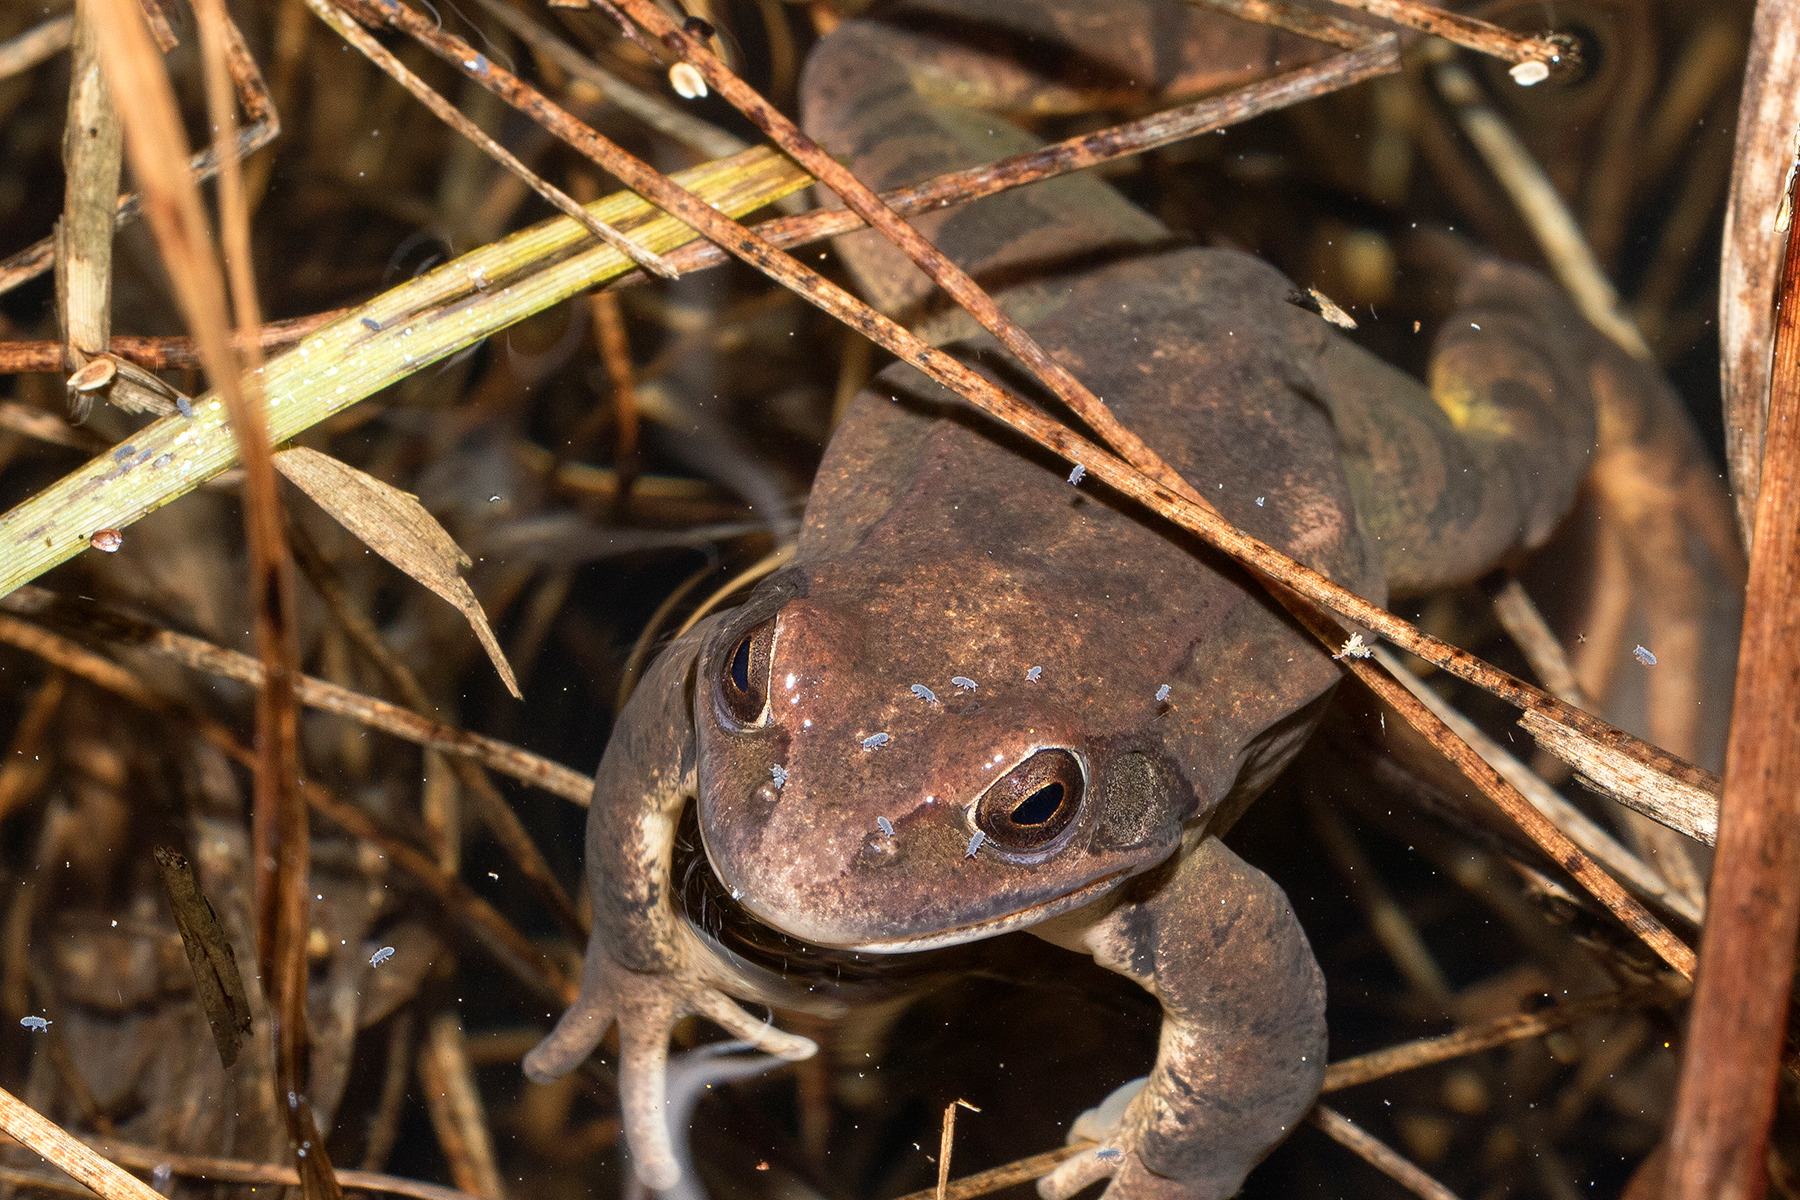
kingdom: Animalia
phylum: Chordata
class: Amphibia
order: Anura
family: Ranidae
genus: Rana
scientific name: Rana dalmatina
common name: Springfrø
